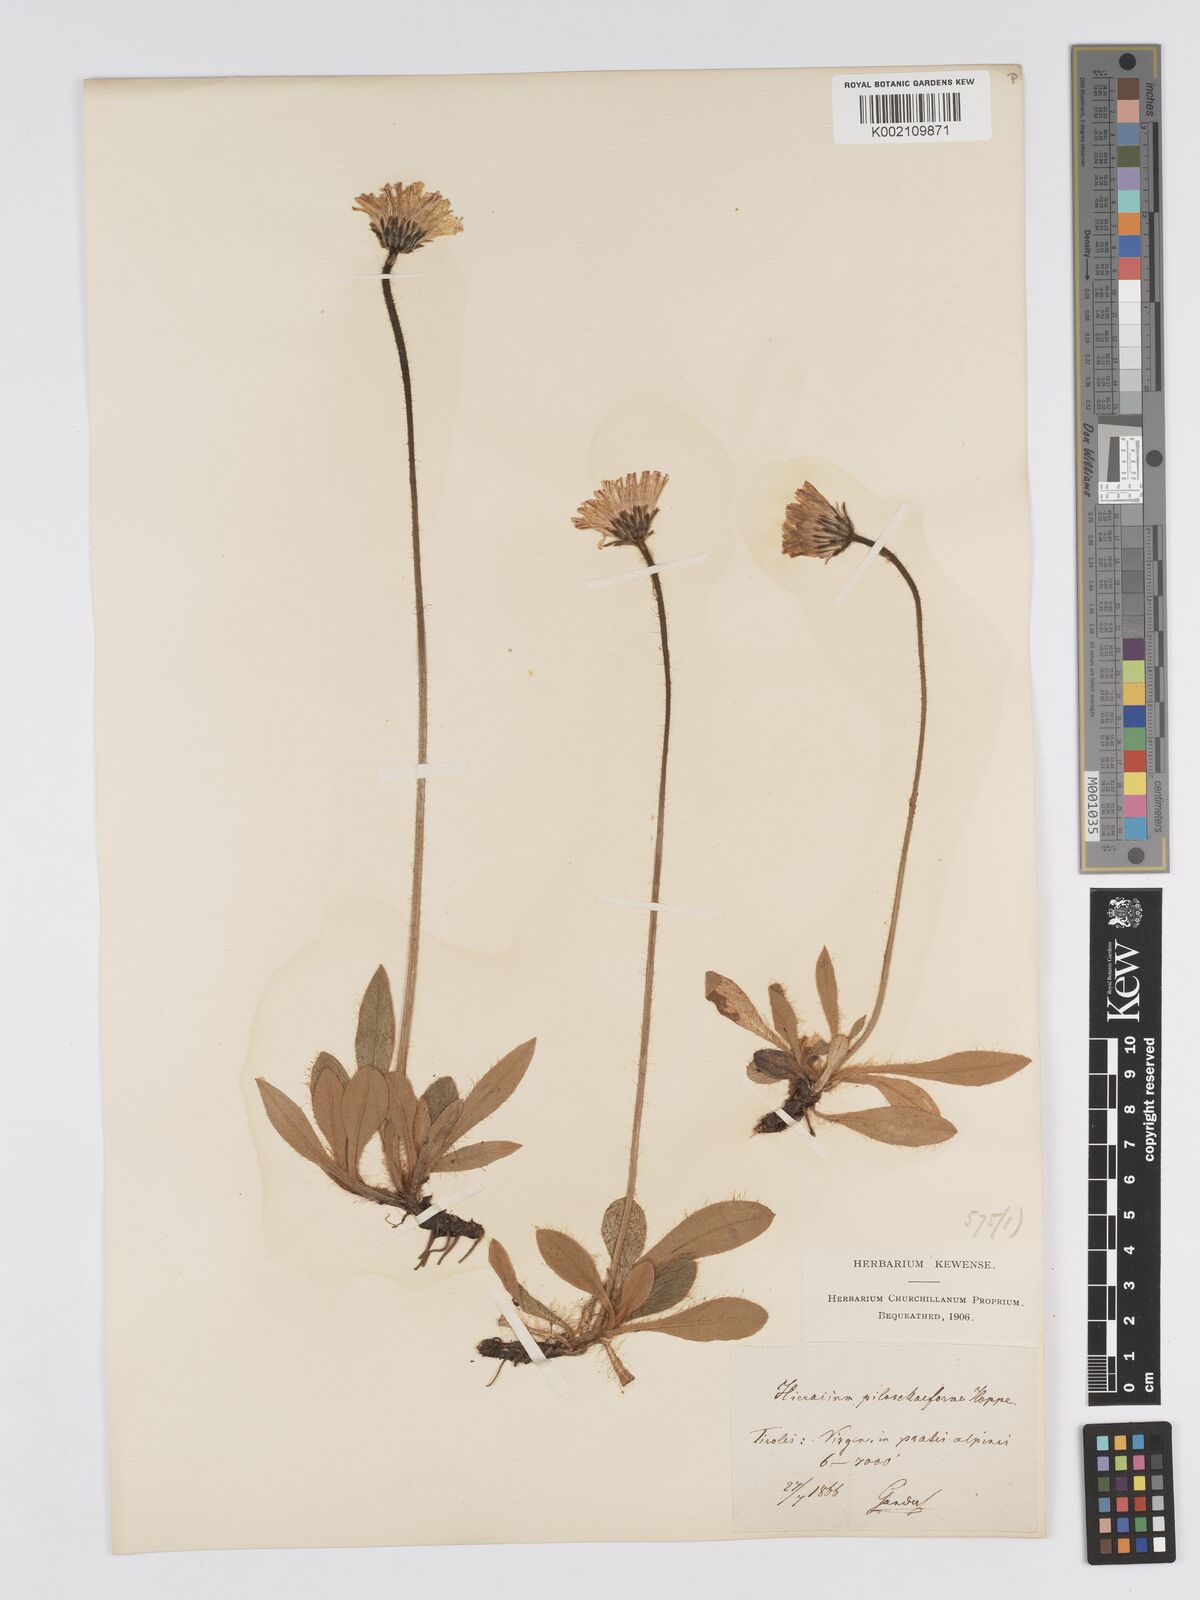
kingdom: Plantae
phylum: Tracheophyta
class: Magnoliopsida
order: Asterales
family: Asteraceae
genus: Pilosella
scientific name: Pilosella hoppeana
